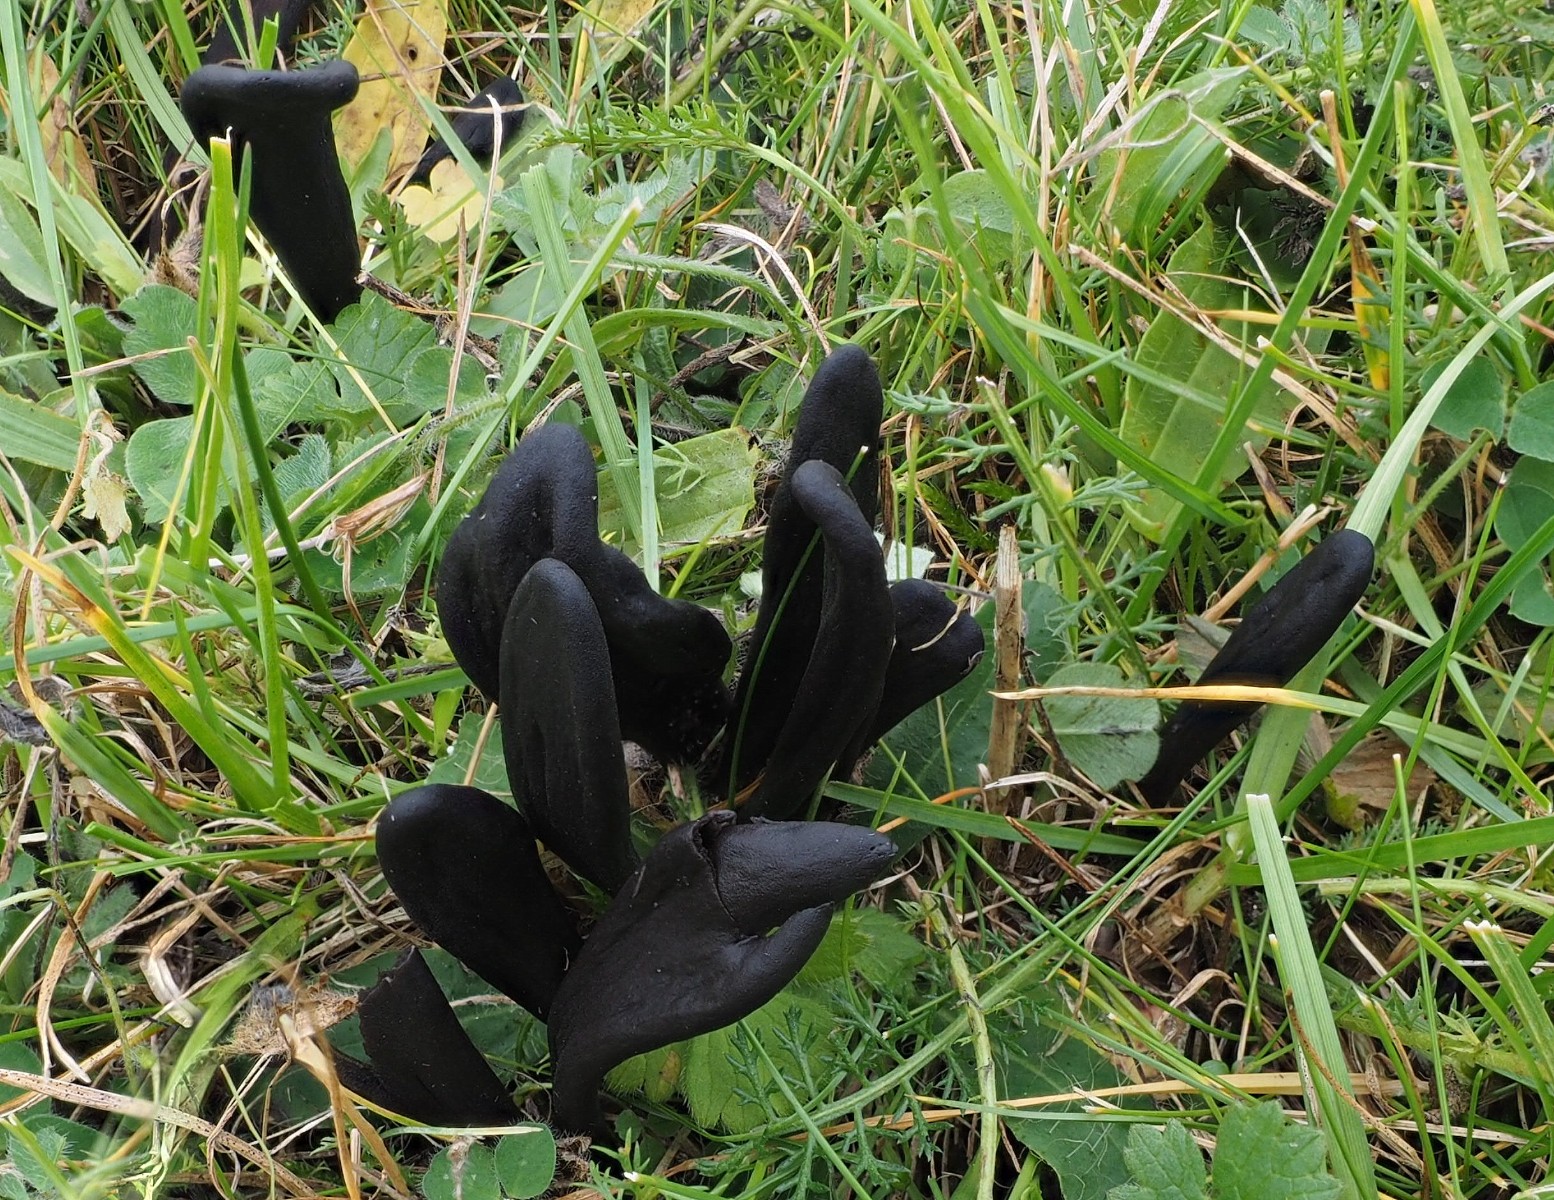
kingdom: Fungi
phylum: Ascomycota
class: Geoglossomycetes
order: Geoglossales
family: Geoglossaceae
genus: Geoglossum
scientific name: Geoglossum
